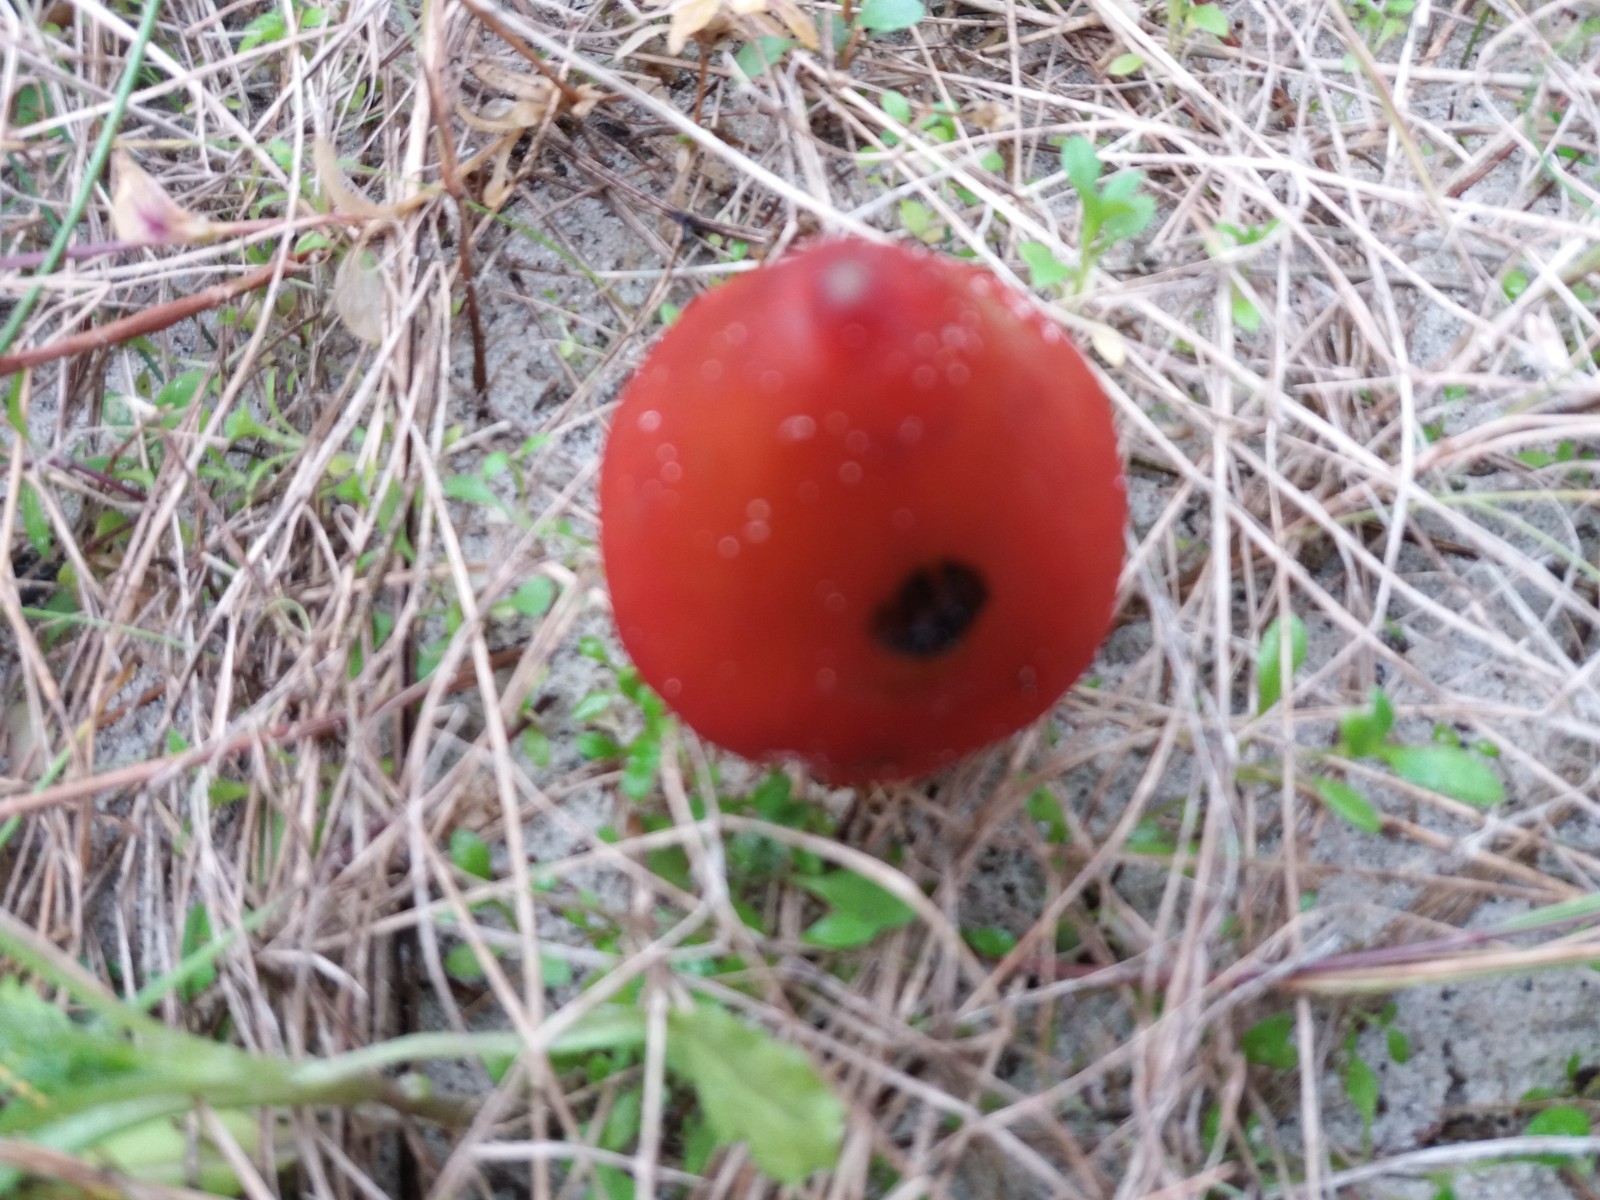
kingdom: Fungi
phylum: Basidiomycota
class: Agaricomycetes
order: Agaricales
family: Hygrophoraceae
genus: Hygrocybe
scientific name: Hygrocybe conicoides
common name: klit-vokshat
